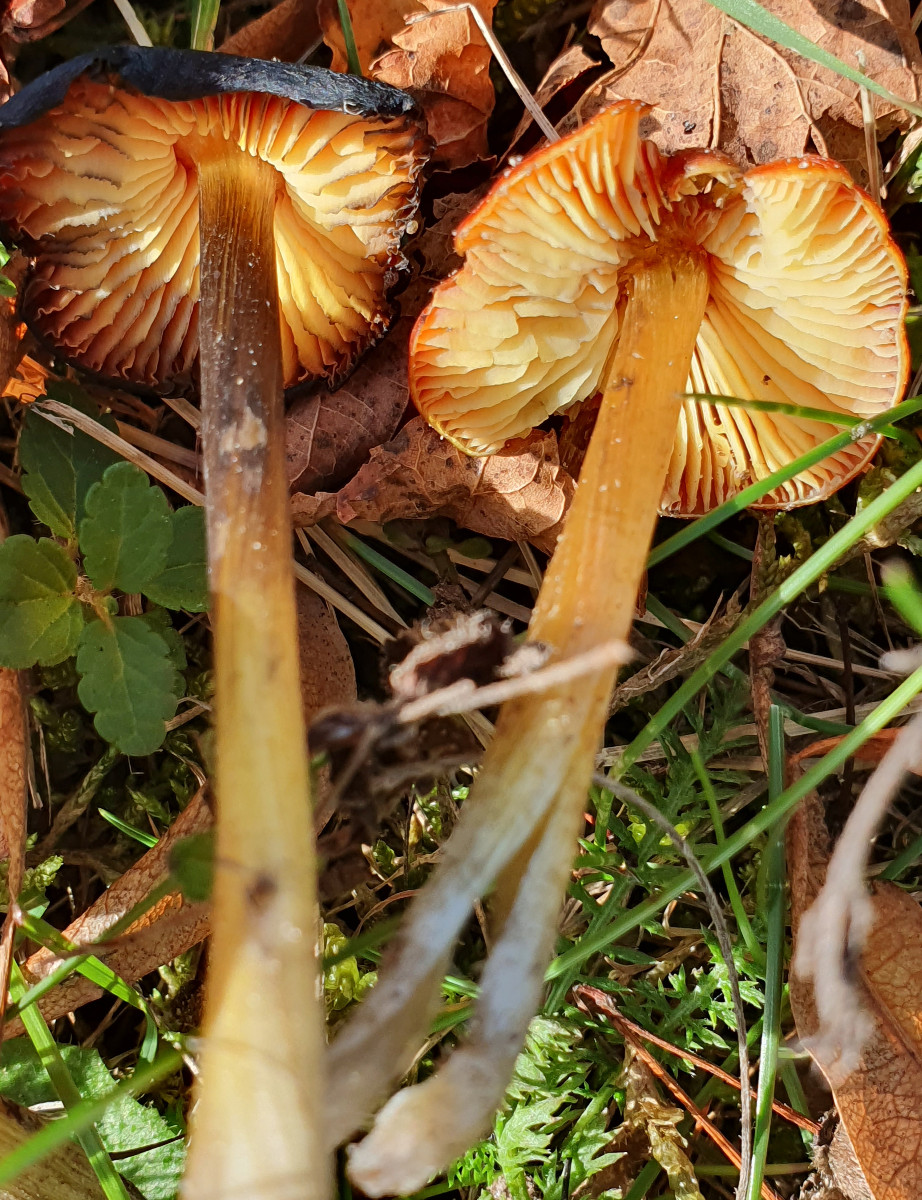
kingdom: Fungi
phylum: Basidiomycota
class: Agaricomycetes
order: Agaricales
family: Hygrophoraceae
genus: Hygrocybe
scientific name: Hygrocybe conica
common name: kegle-vokshat
